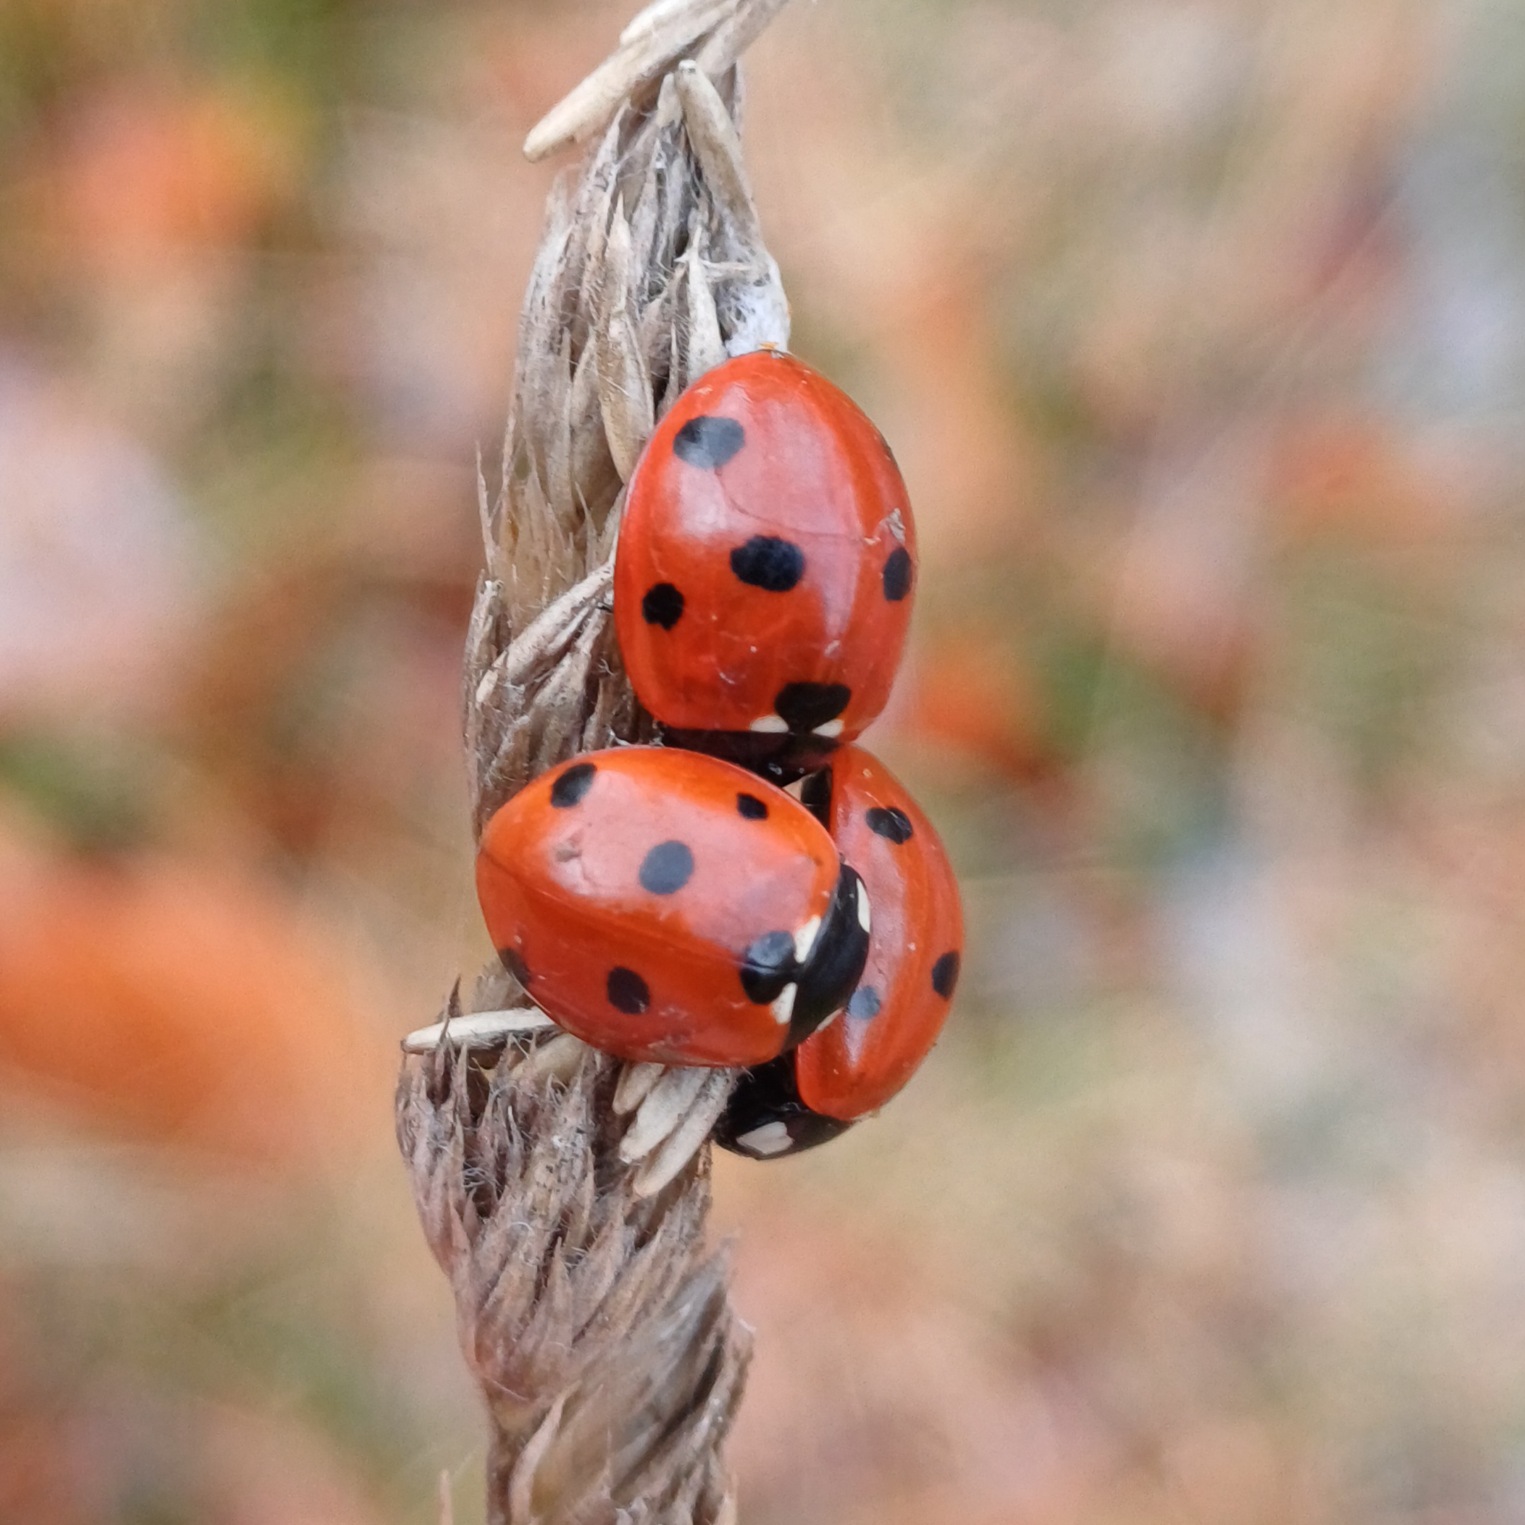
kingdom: Animalia
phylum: Arthropoda
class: Insecta
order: Coleoptera
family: Coccinellidae
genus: Coccinella
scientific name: Coccinella septempunctata
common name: Syvplettet mariehøne
